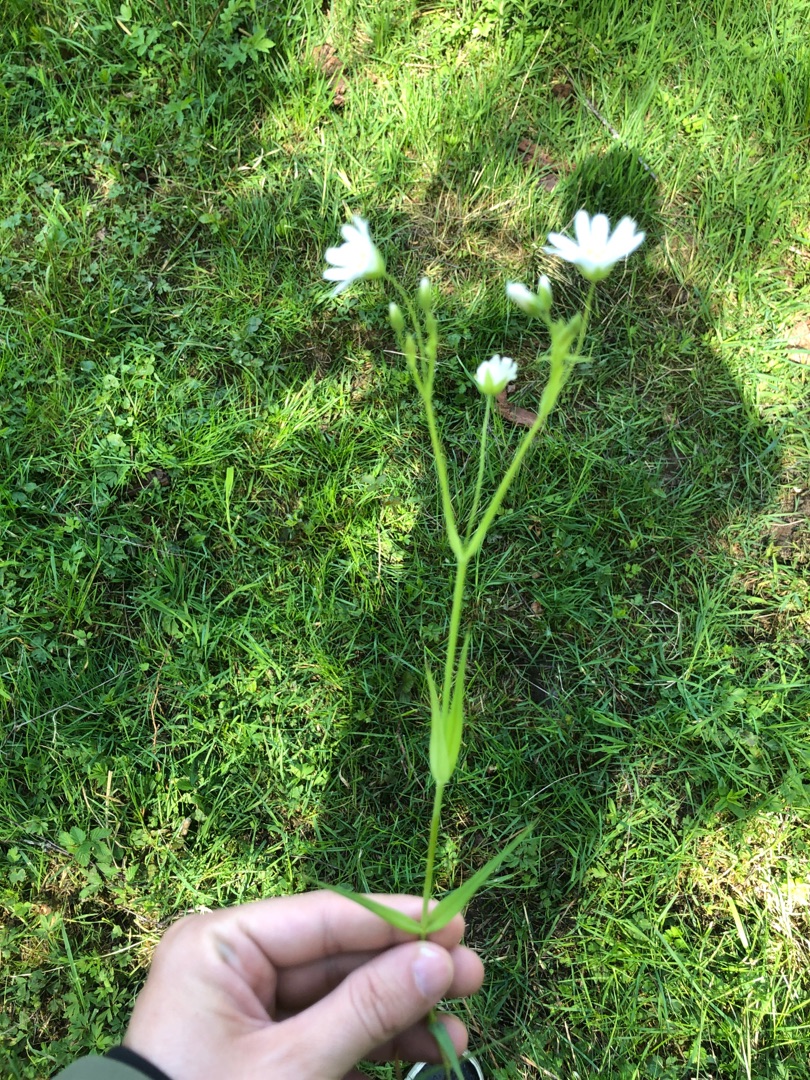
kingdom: Plantae
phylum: Tracheophyta
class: Magnoliopsida
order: Caryophyllales
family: Caryophyllaceae
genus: Rabelera
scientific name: Rabelera holostea
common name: Stor fladstjerne
